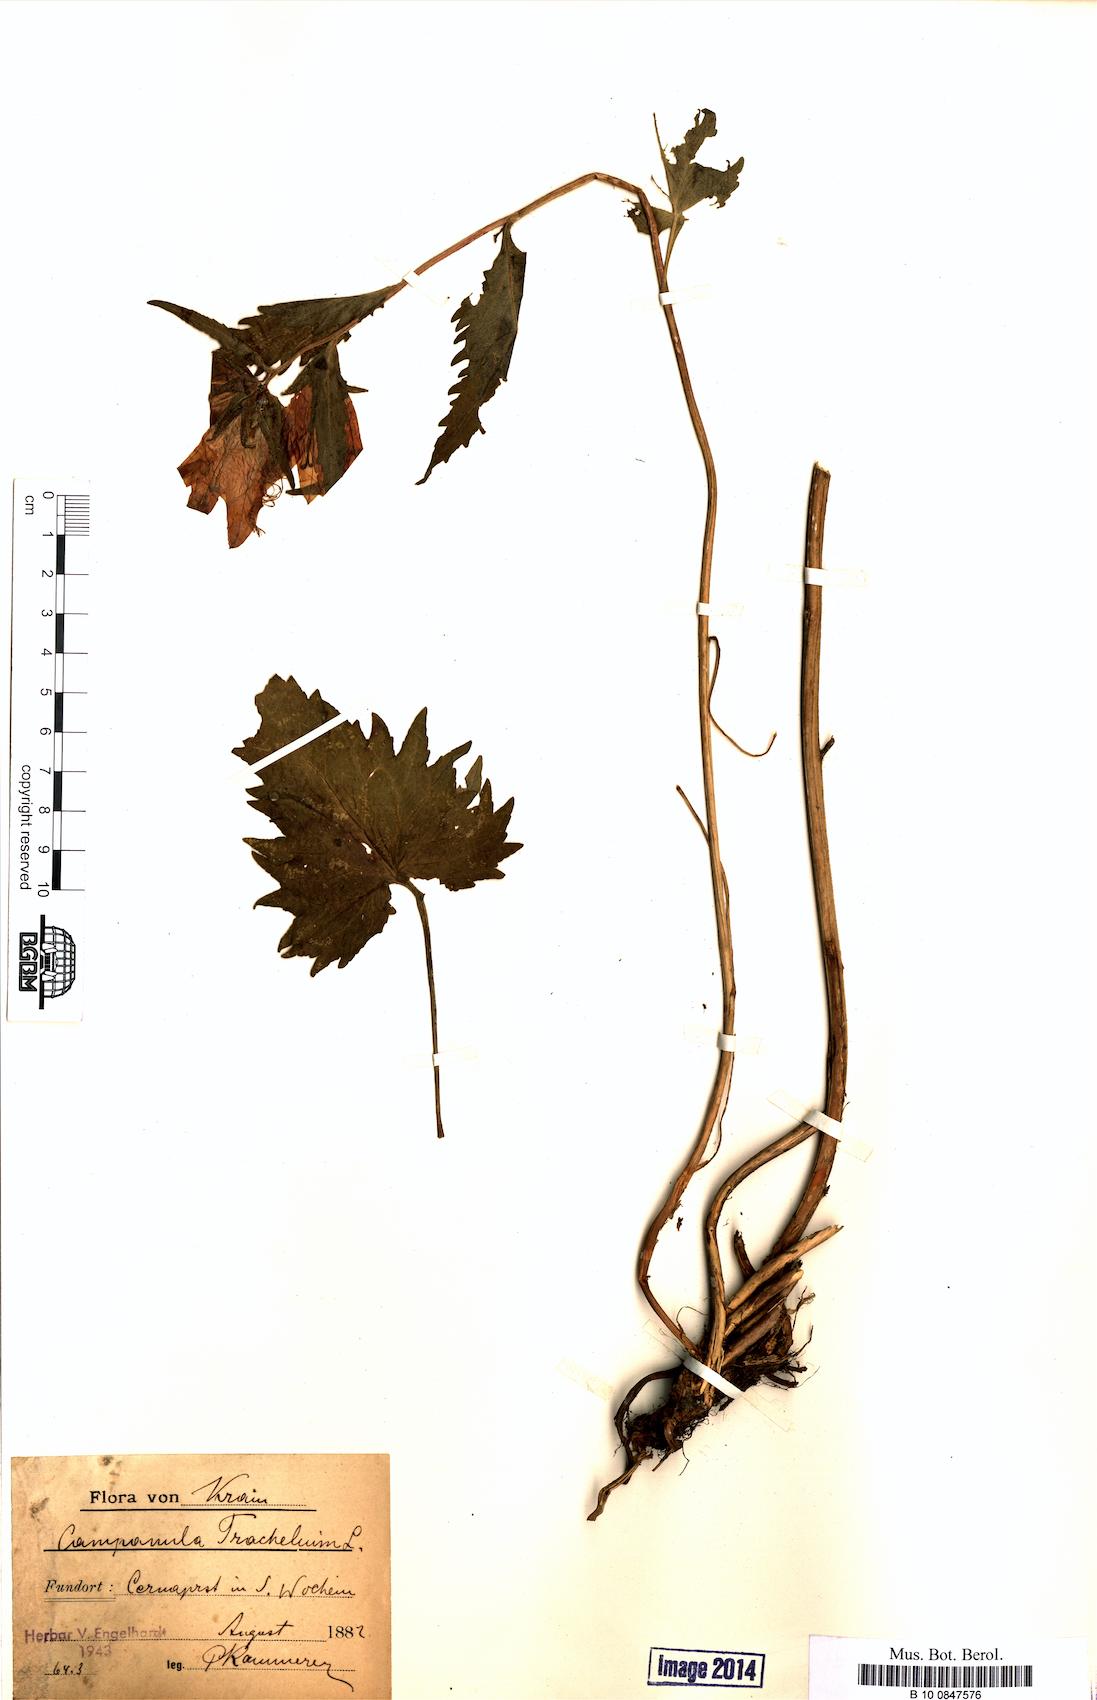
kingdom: Plantae
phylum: Tracheophyta
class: Magnoliopsida
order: Asterales
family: Campanulaceae
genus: Campanula
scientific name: Campanula trachelium
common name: Nettle-leaved bellflower
